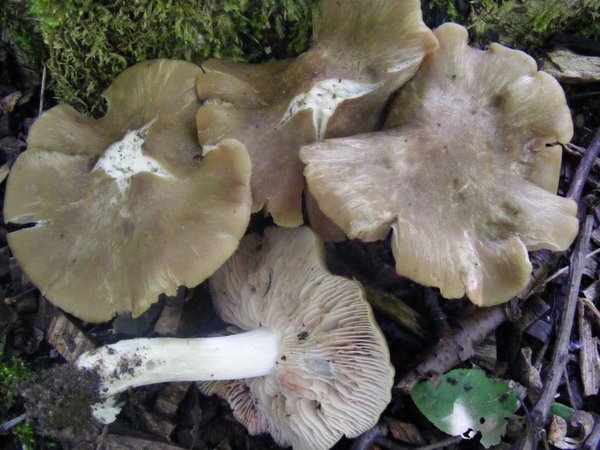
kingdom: Fungi
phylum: Basidiomycota
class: Agaricomycetes
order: Agaricales
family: Entolomataceae
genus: Entoloma
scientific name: Entoloma clypeatum
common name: flammet rødblad
